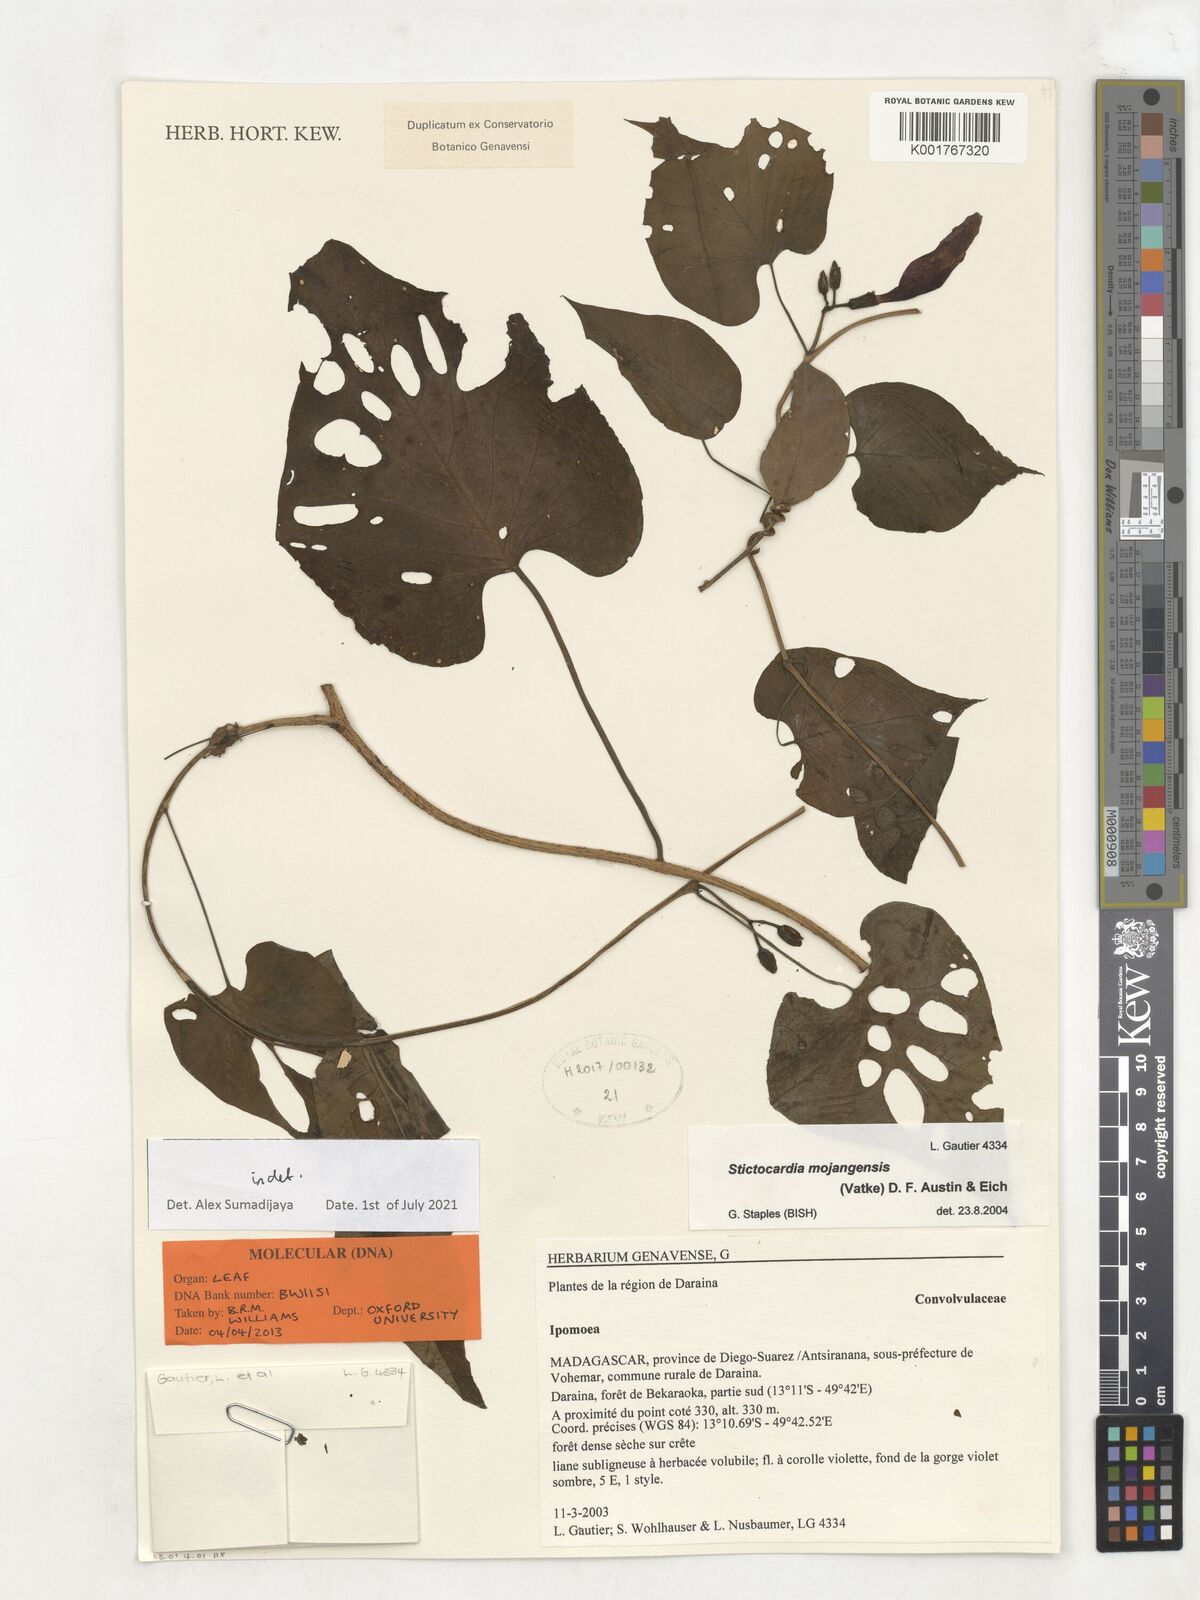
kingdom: Plantae
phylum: Tracheophyta
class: Magnoliopsida
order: Solanales
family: Convolvulaceae
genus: Stictocardia
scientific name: Stictocardia mojangensis
